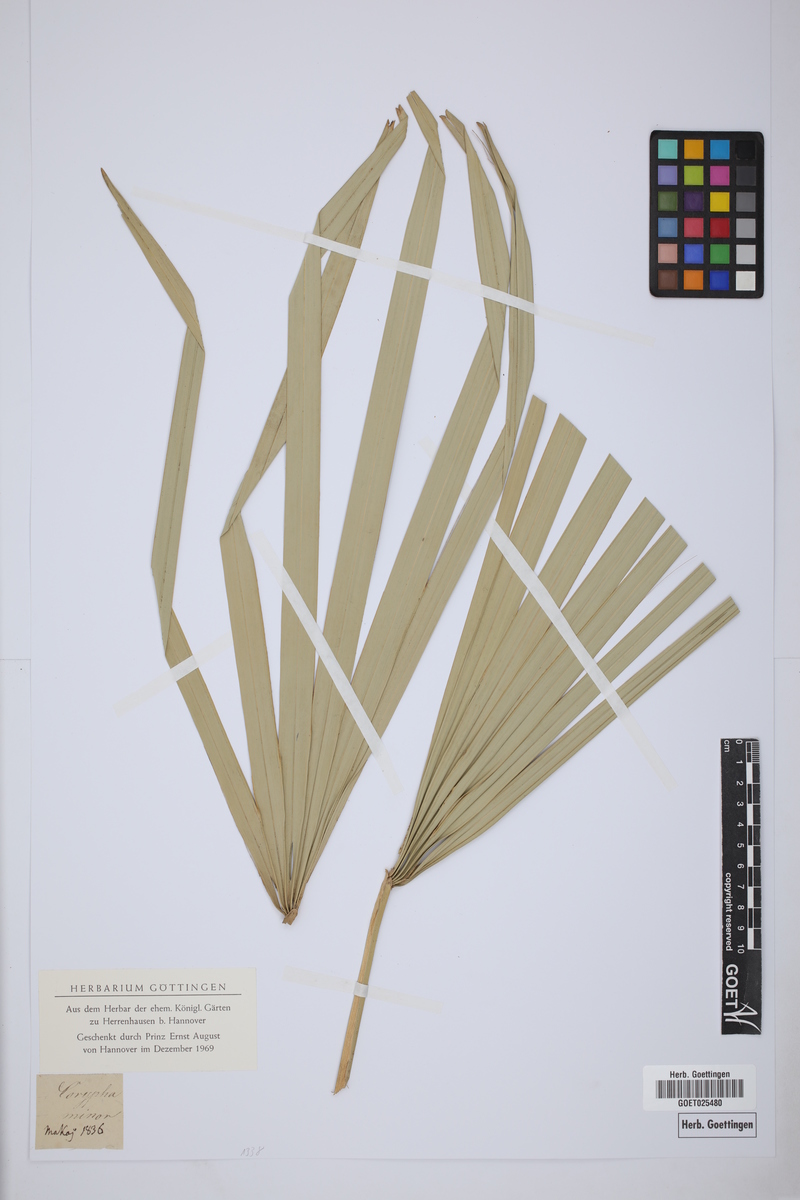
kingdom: Plantae
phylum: Tracheophyta
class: Liliopsida
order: Arecales
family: Arecaceae
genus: Sabal
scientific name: Sabal minor
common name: Dwarf palmetto
